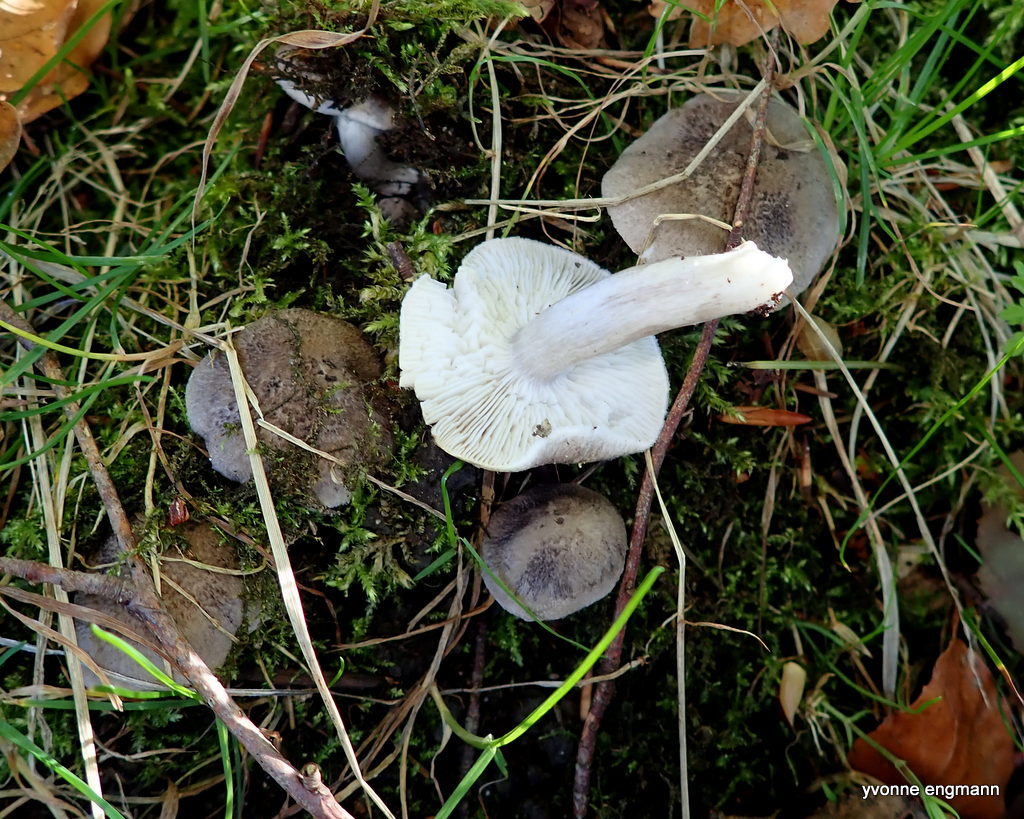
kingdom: Fungi
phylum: Basidiomycota
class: Agaricomycetes
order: Agaricales
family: Tricholomataceae
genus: Tricholoma
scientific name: Tricholoma scalpturatum
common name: gulplettet ridderhat
